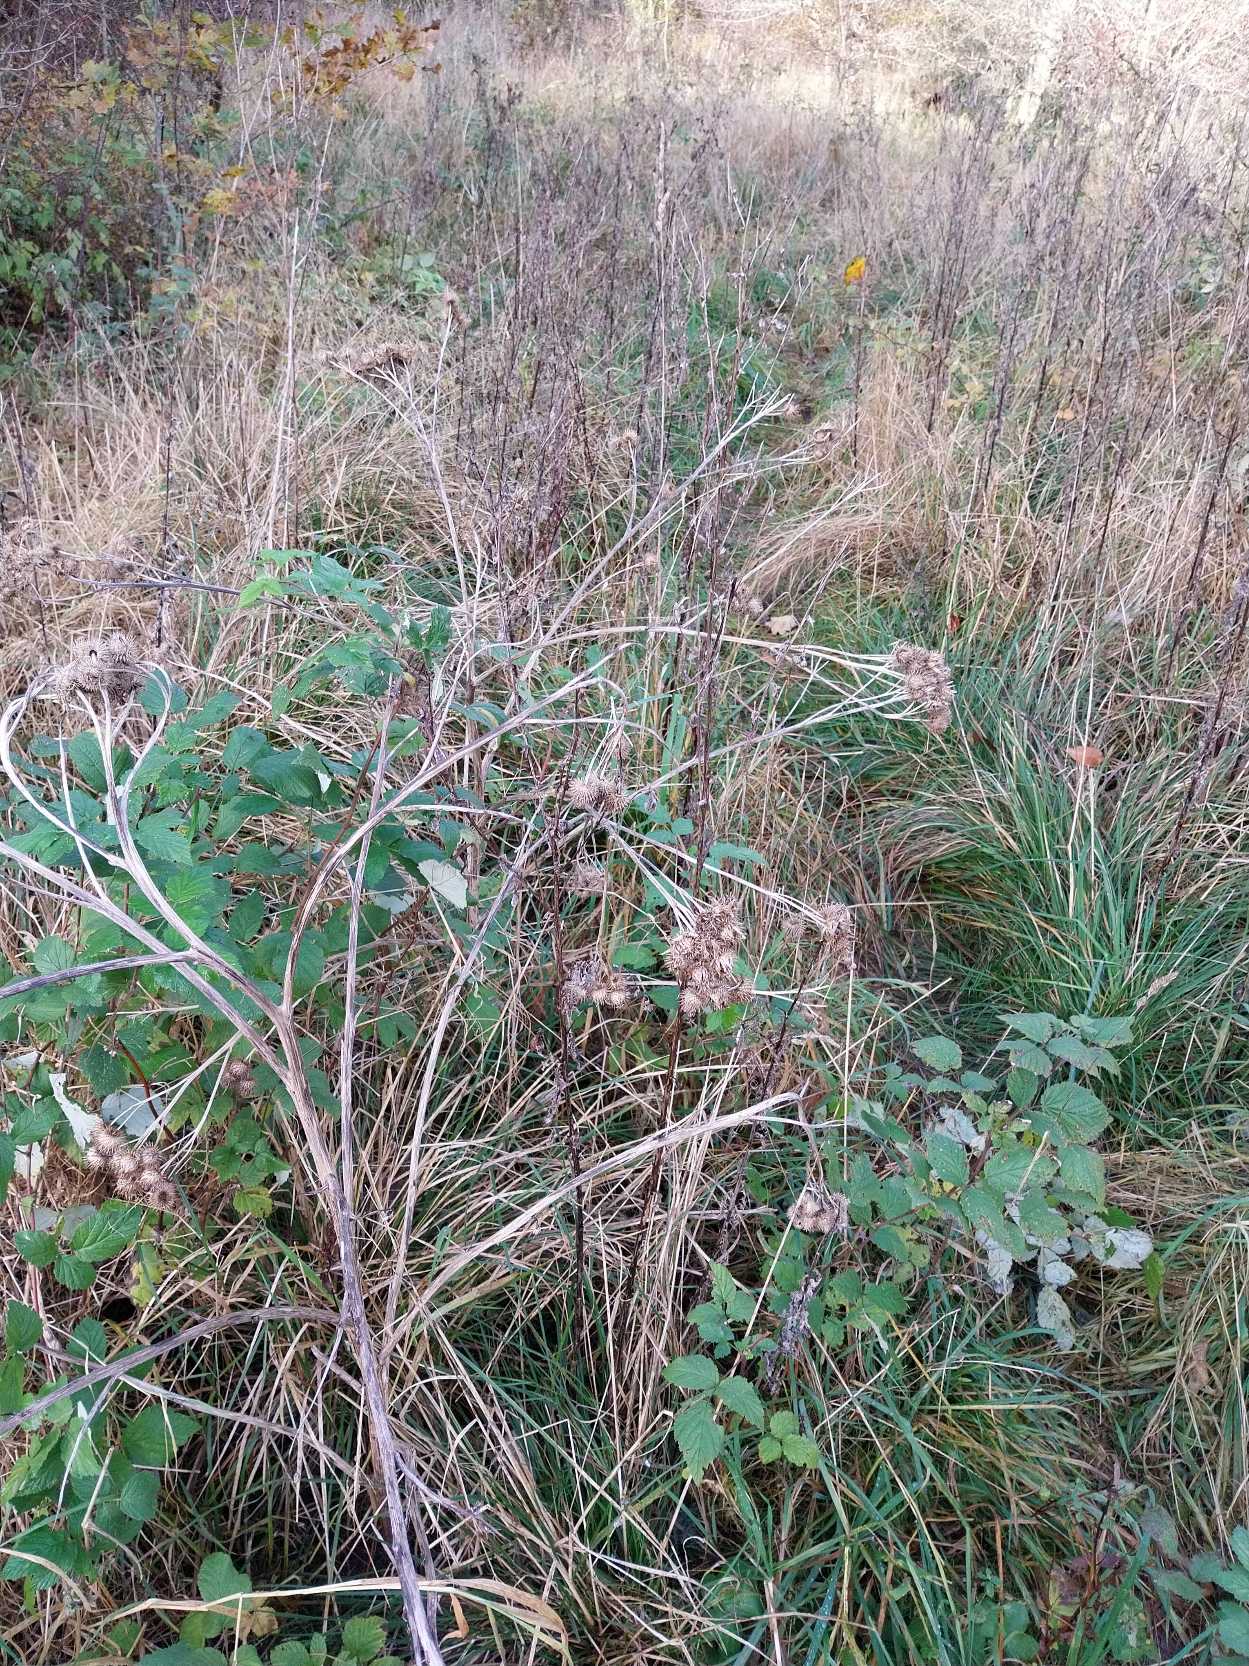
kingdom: Plantae
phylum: Tracheophyta
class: Magnoliopsida
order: Asterales
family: Asteraceae
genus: Arctium
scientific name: Arctium tomentosum
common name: Filtet burre
